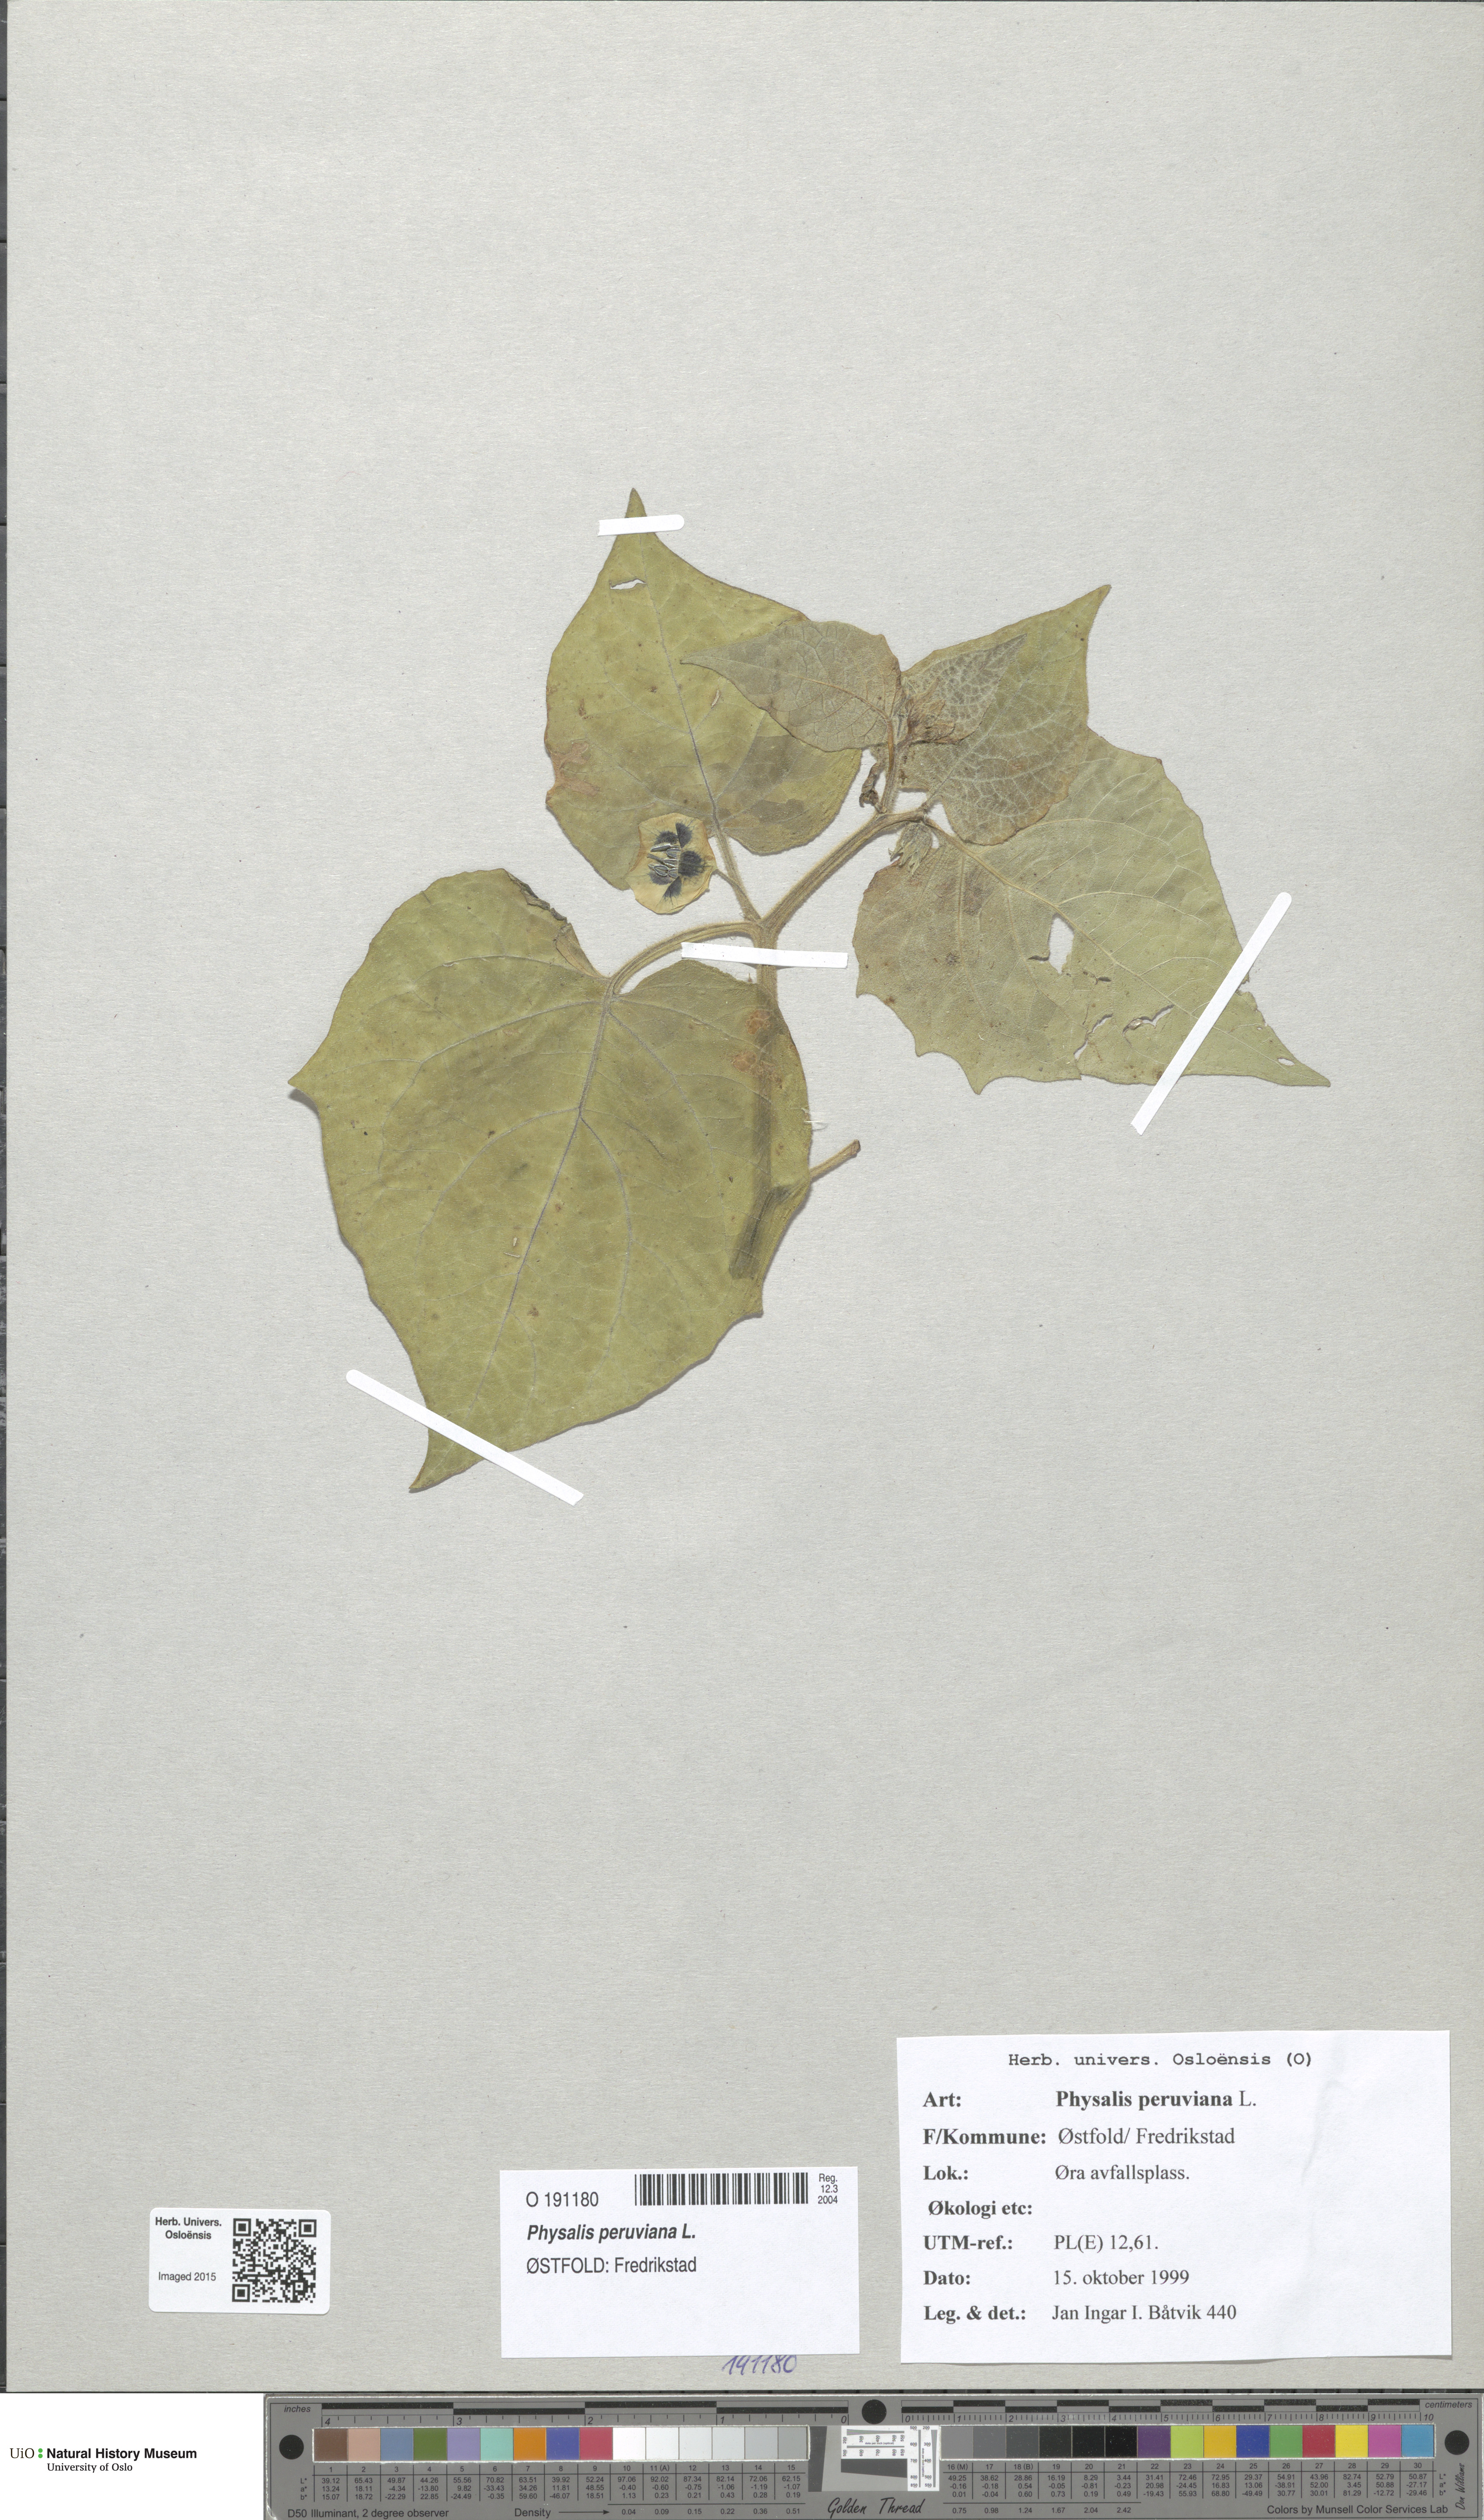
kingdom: Plantae
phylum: Tracheophyta
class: Magnoliopsida
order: Solanales
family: Solanaceae
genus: Physalis
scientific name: Physalis peruviana
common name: Cape-gooseberry
